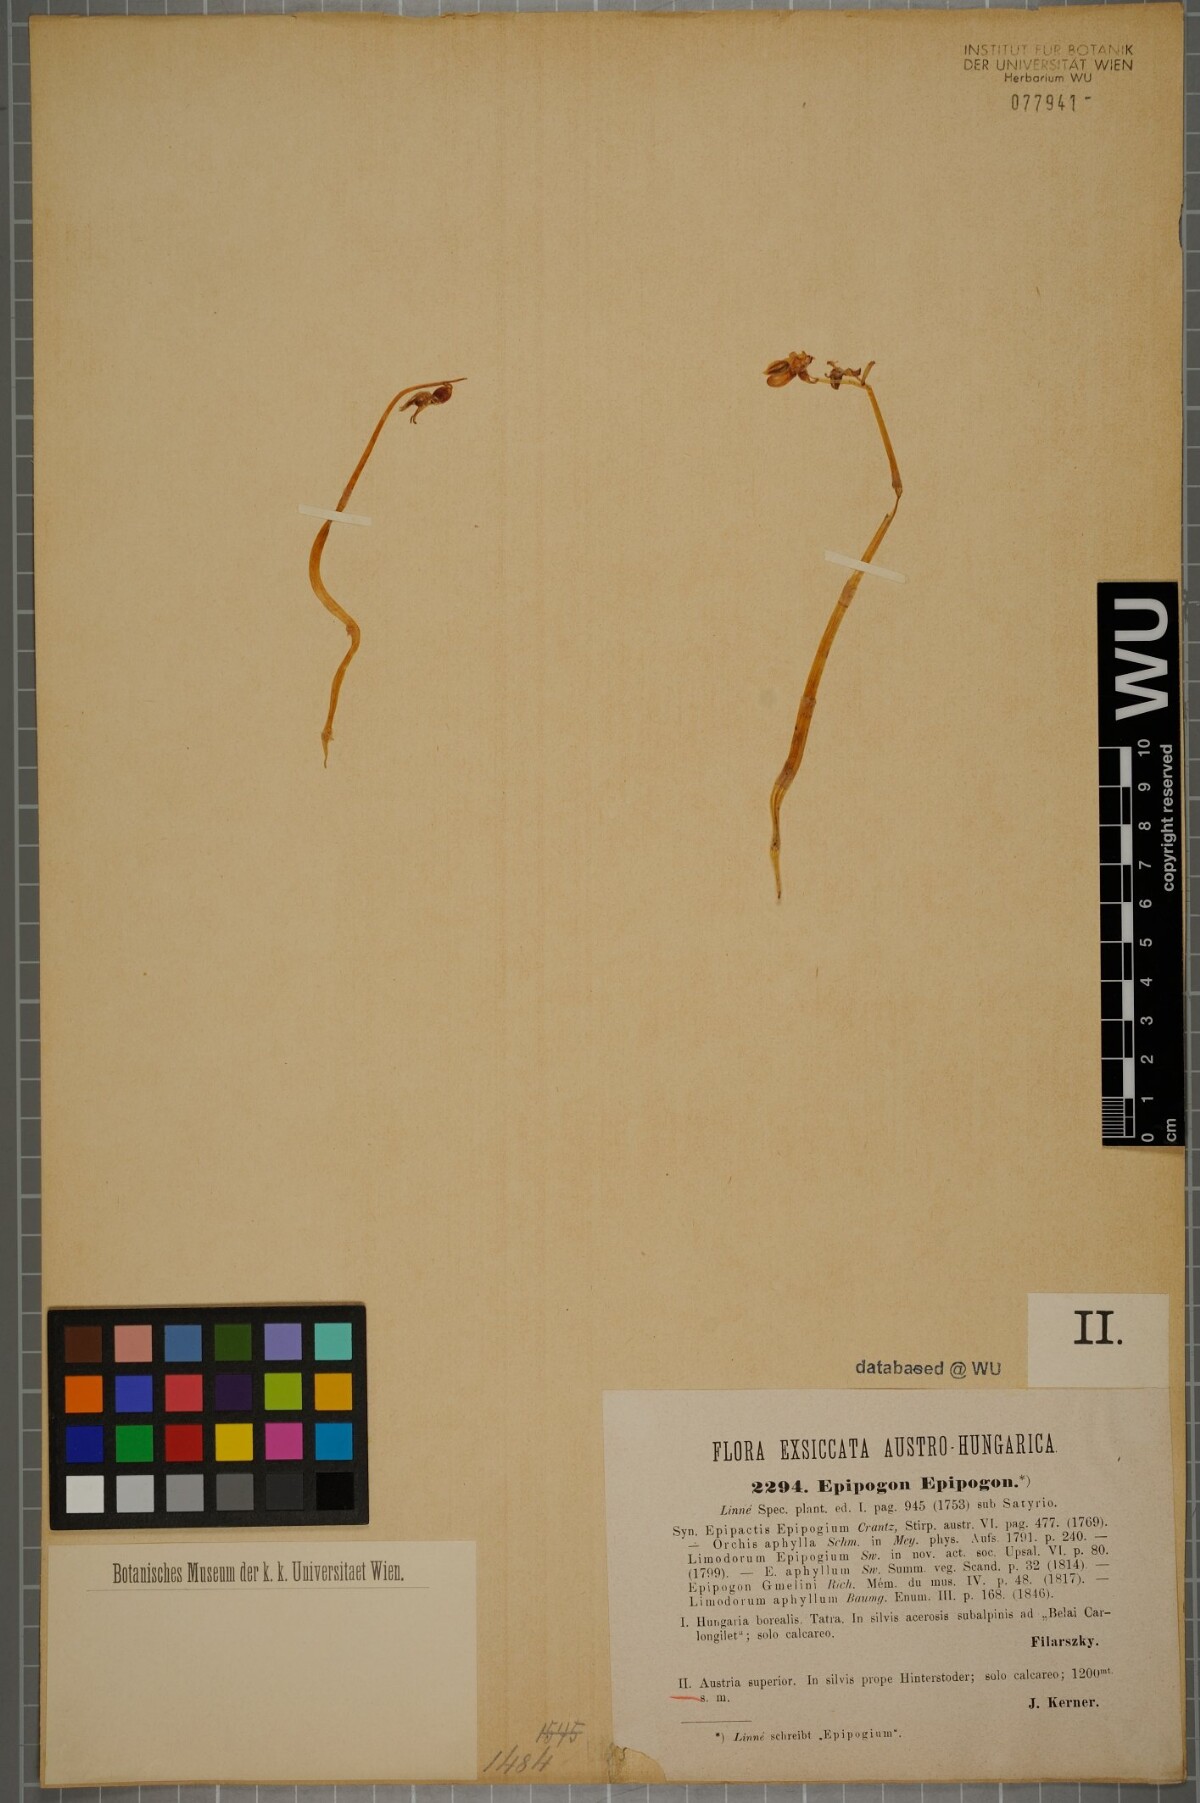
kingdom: Plantae
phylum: Tracheophyta
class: Liliopsida
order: Asparagales
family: Orchidaceae
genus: Epipogium
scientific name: Epipogium aphyllum
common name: Ghost orchid
